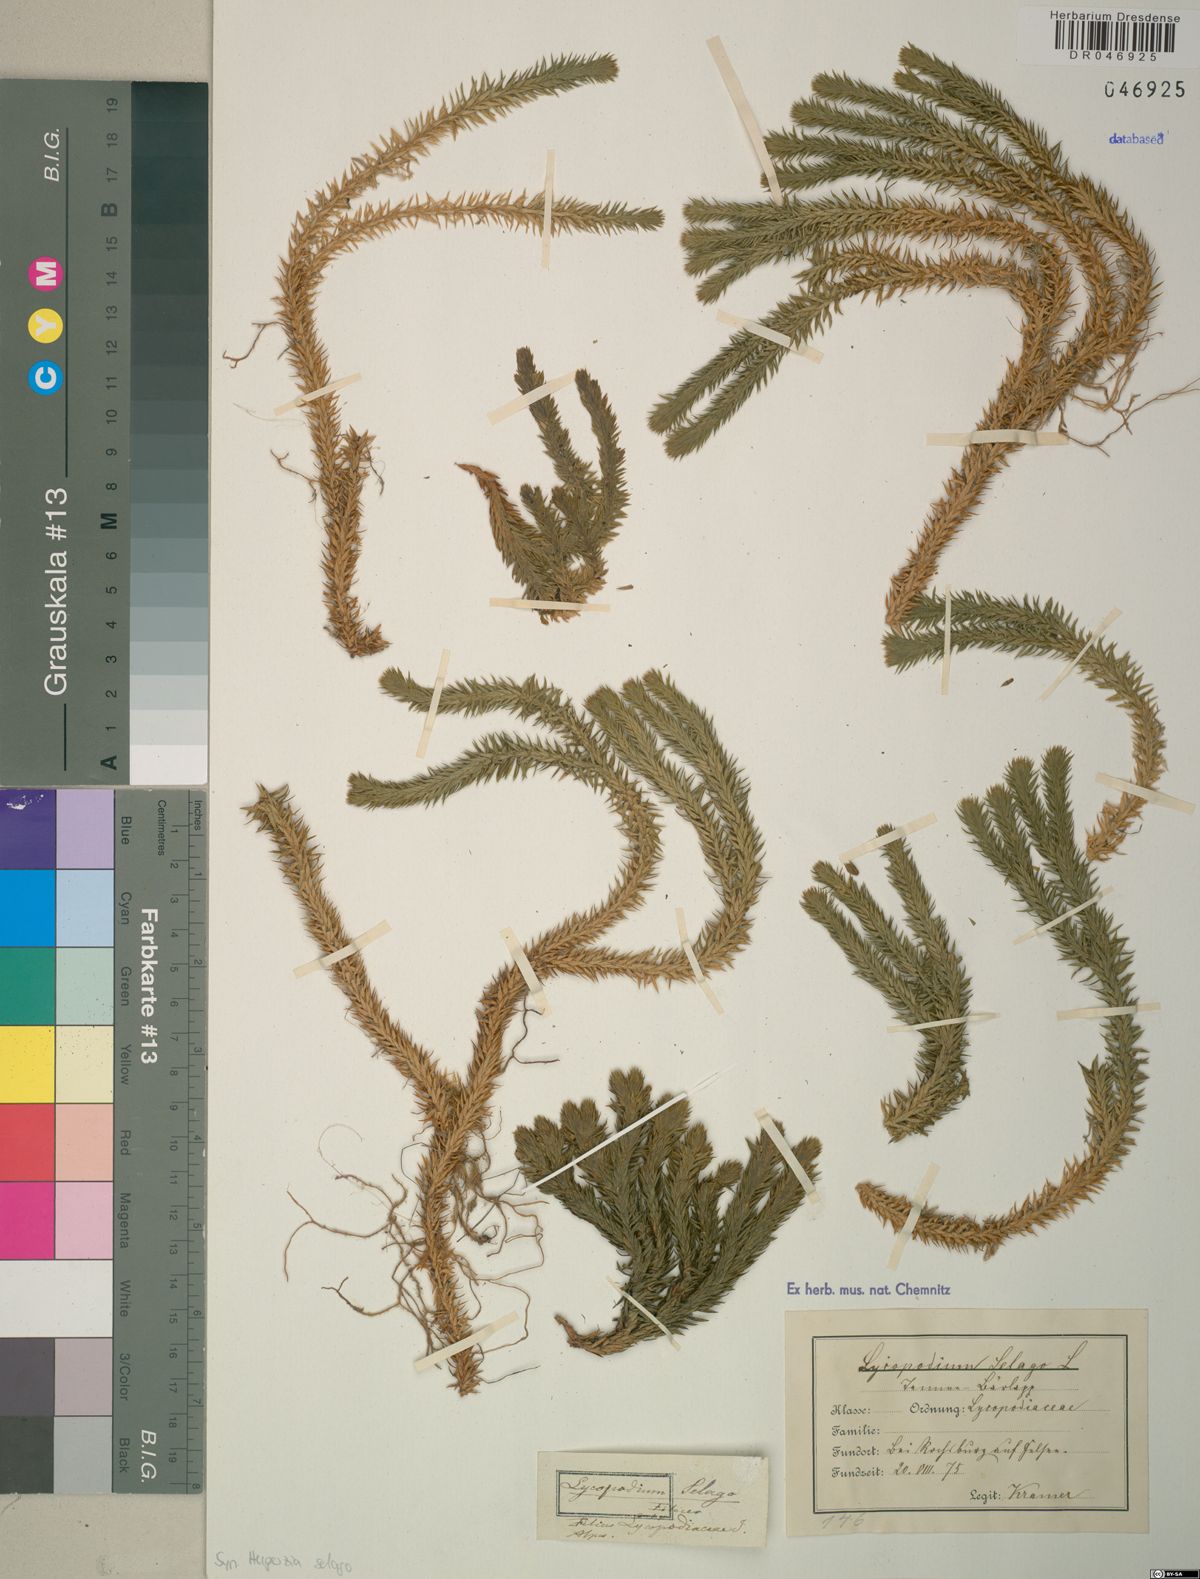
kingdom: Plantae
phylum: Tracheophyta
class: Lycopodiopsida
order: Lycopodiales
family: Lycopodiaceae
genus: Huperzia
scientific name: Huperzia selago
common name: Northern firmoss
